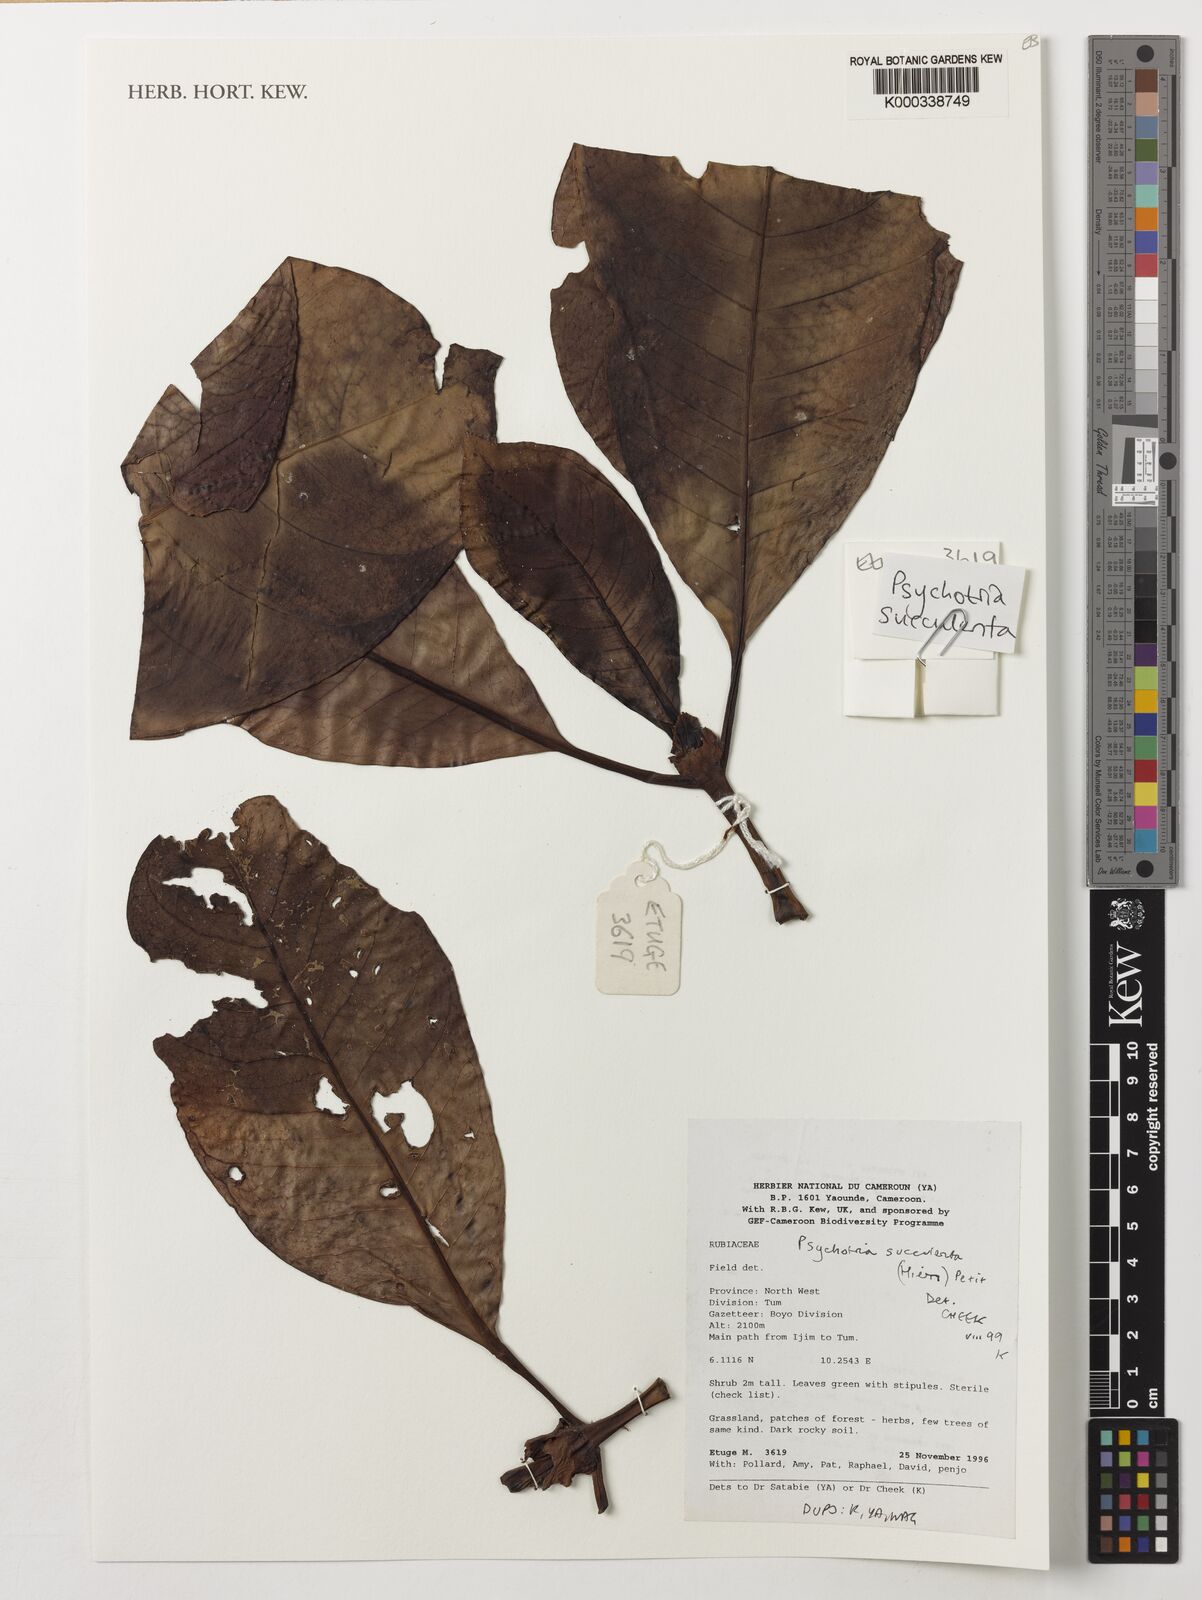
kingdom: Plantae
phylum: Tracheophyta
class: Magnoliopsida
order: Gentianales
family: Rubiaceae
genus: Psychotria
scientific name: Psychotria succulenta
